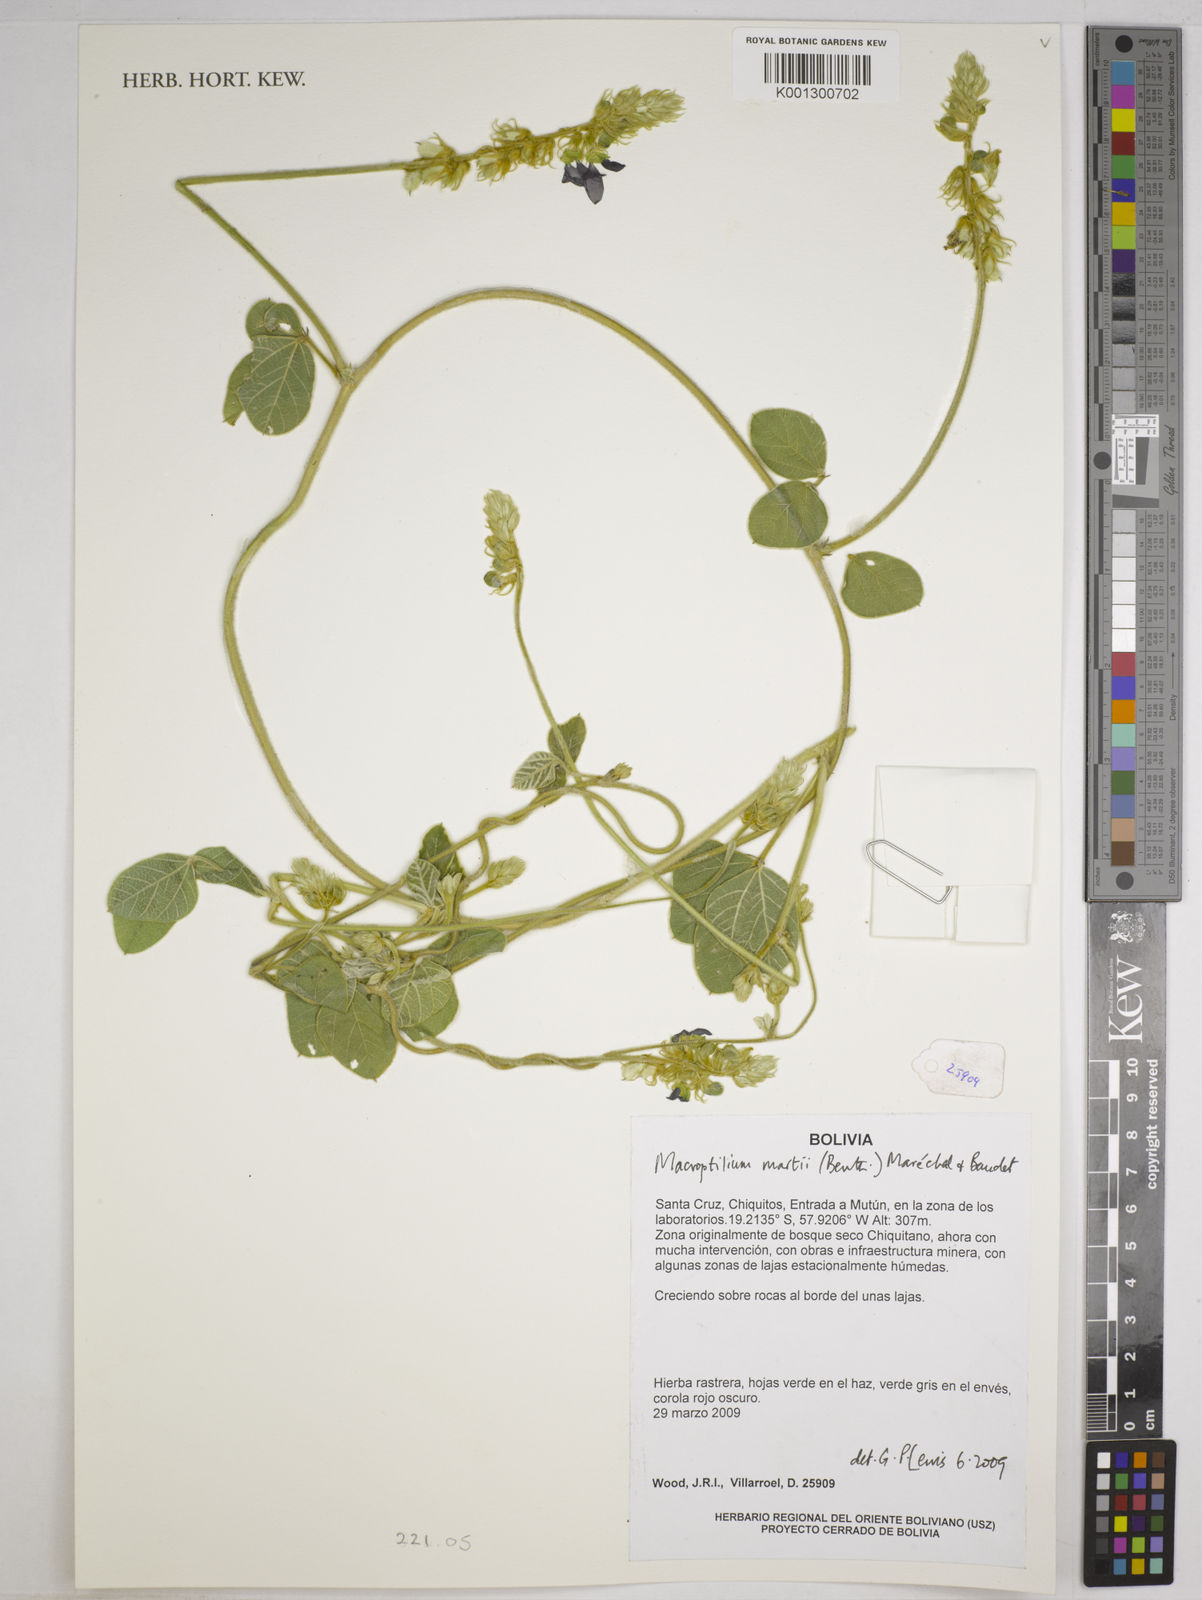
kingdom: Plantae
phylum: Tracheophyta
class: Magnoliopsida
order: Fabales
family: Fabaceae
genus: Macroptilium
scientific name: Macroptilium martii
